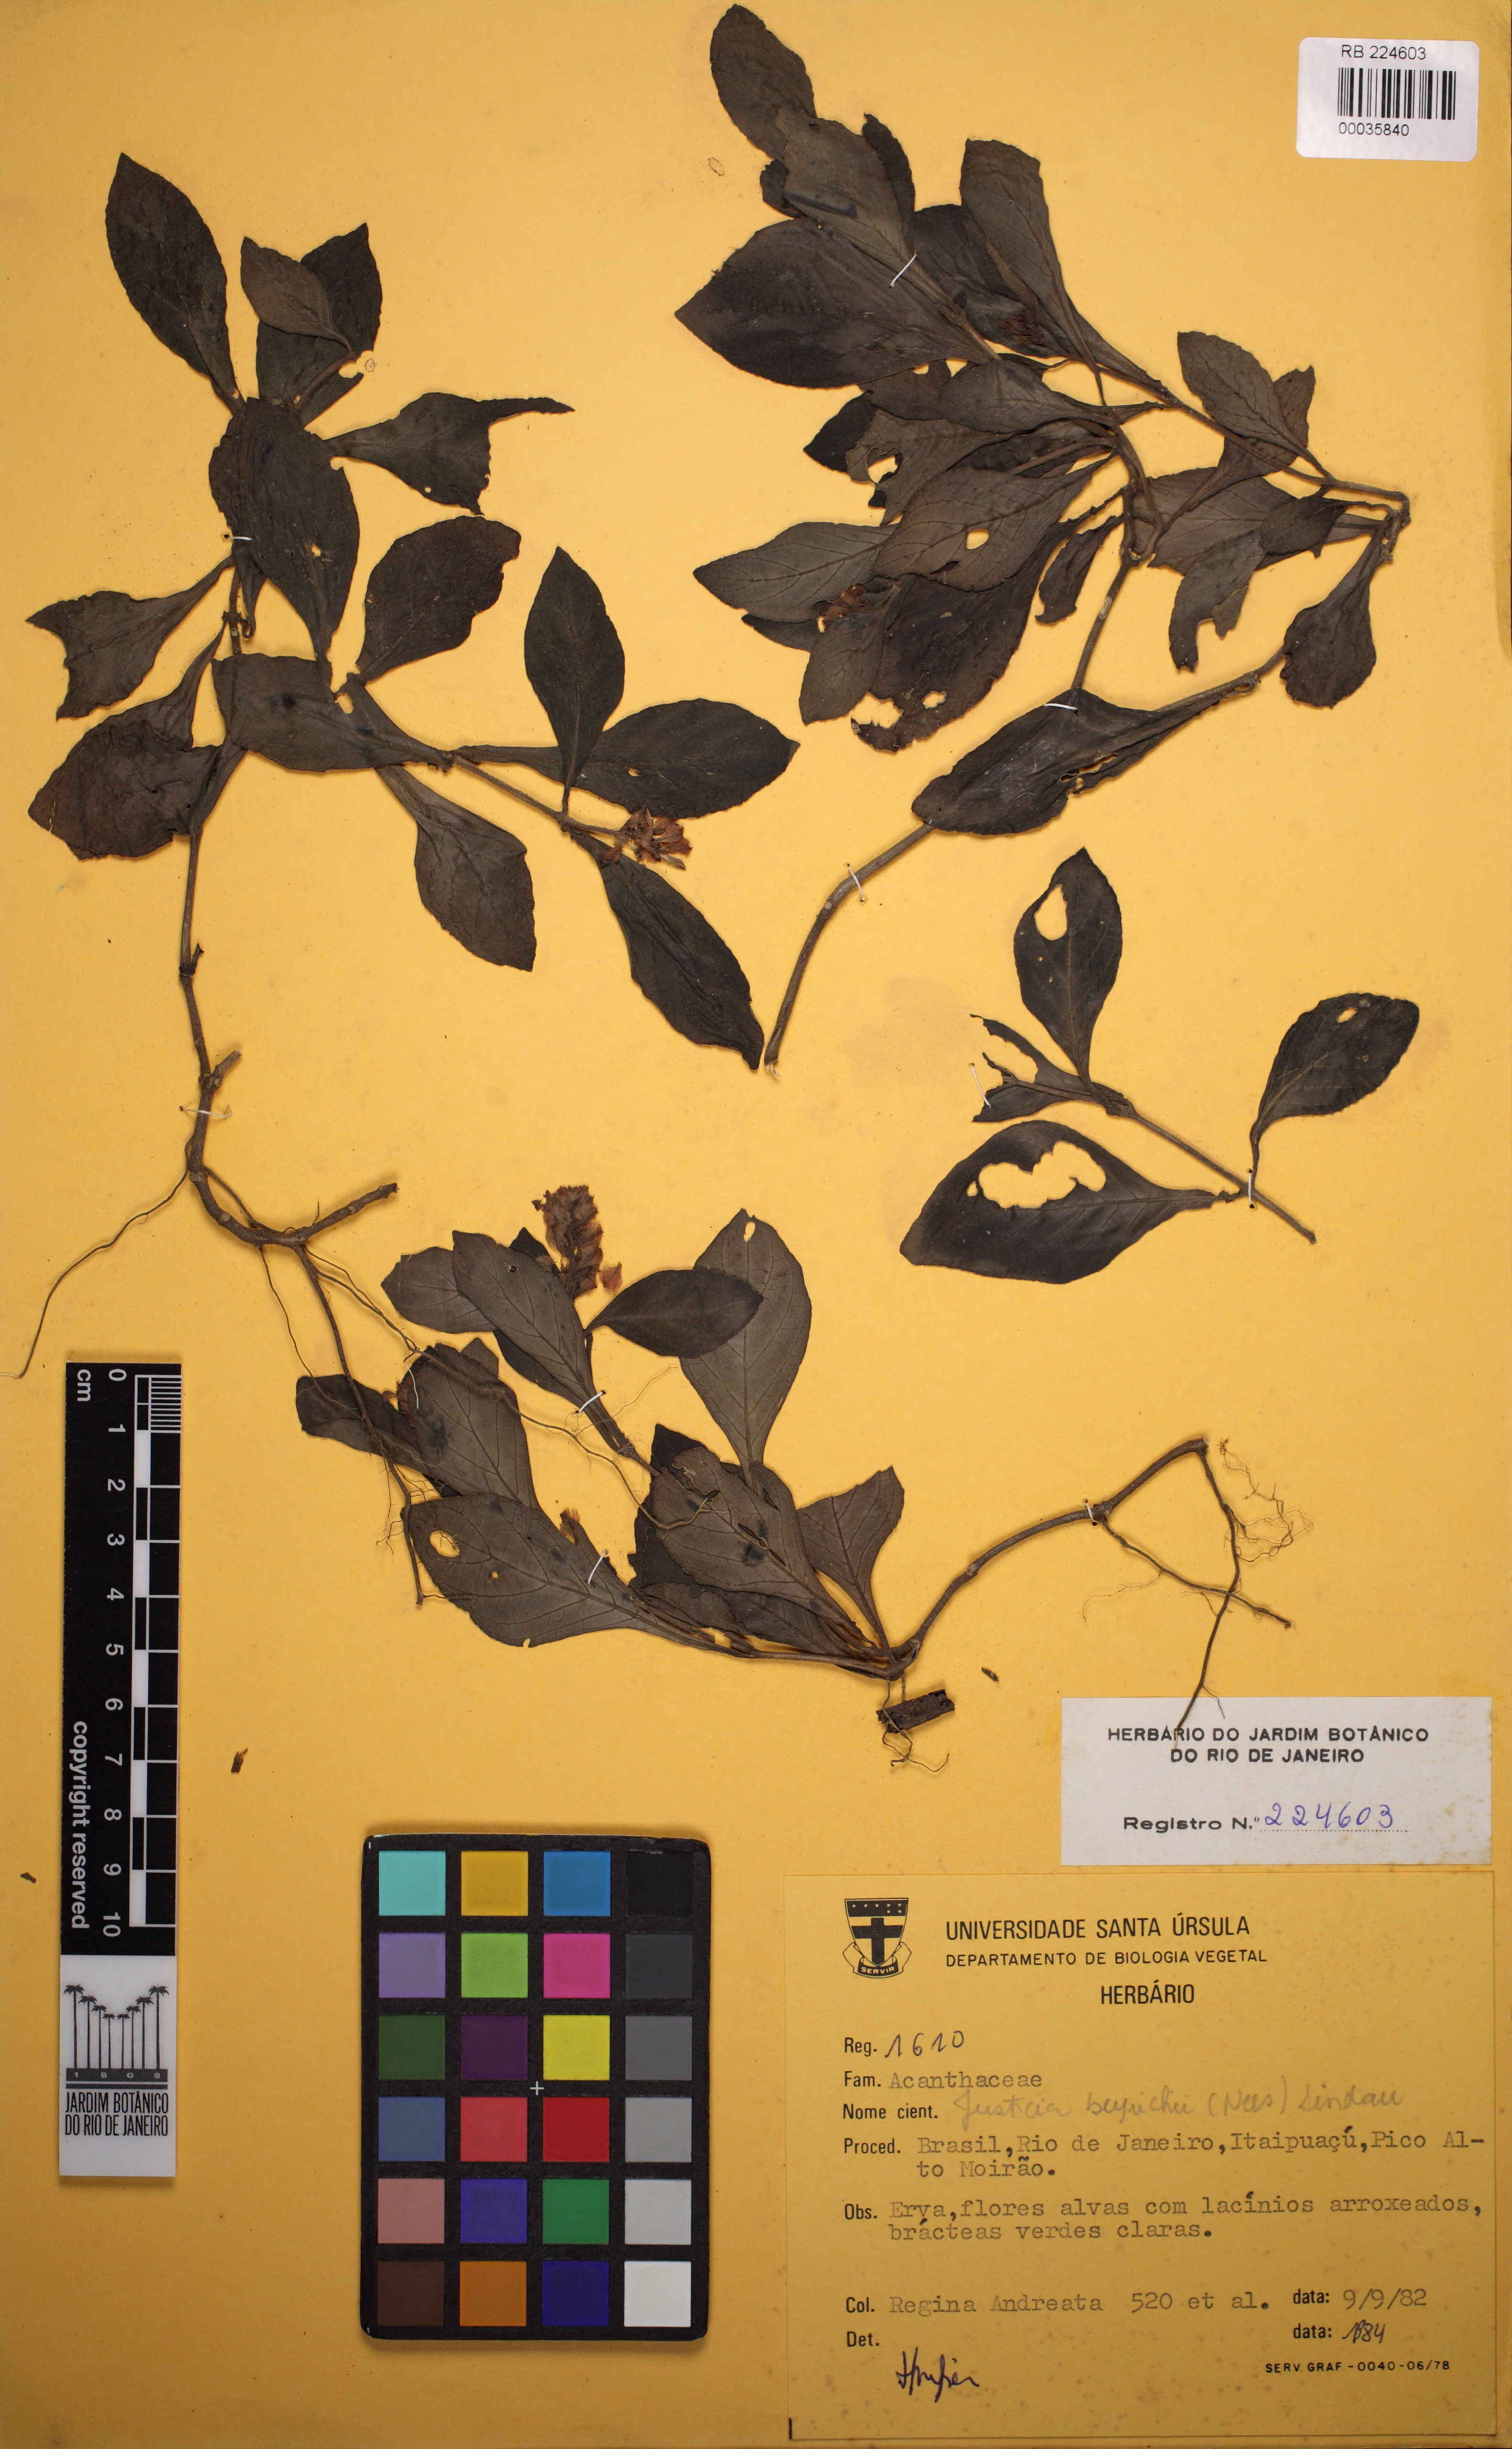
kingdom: Plantae
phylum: Tracheophyta
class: Magnoliopsida
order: Lamiales
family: Acanthaceae
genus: Dianthera
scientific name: Dianthera brasiliensis
